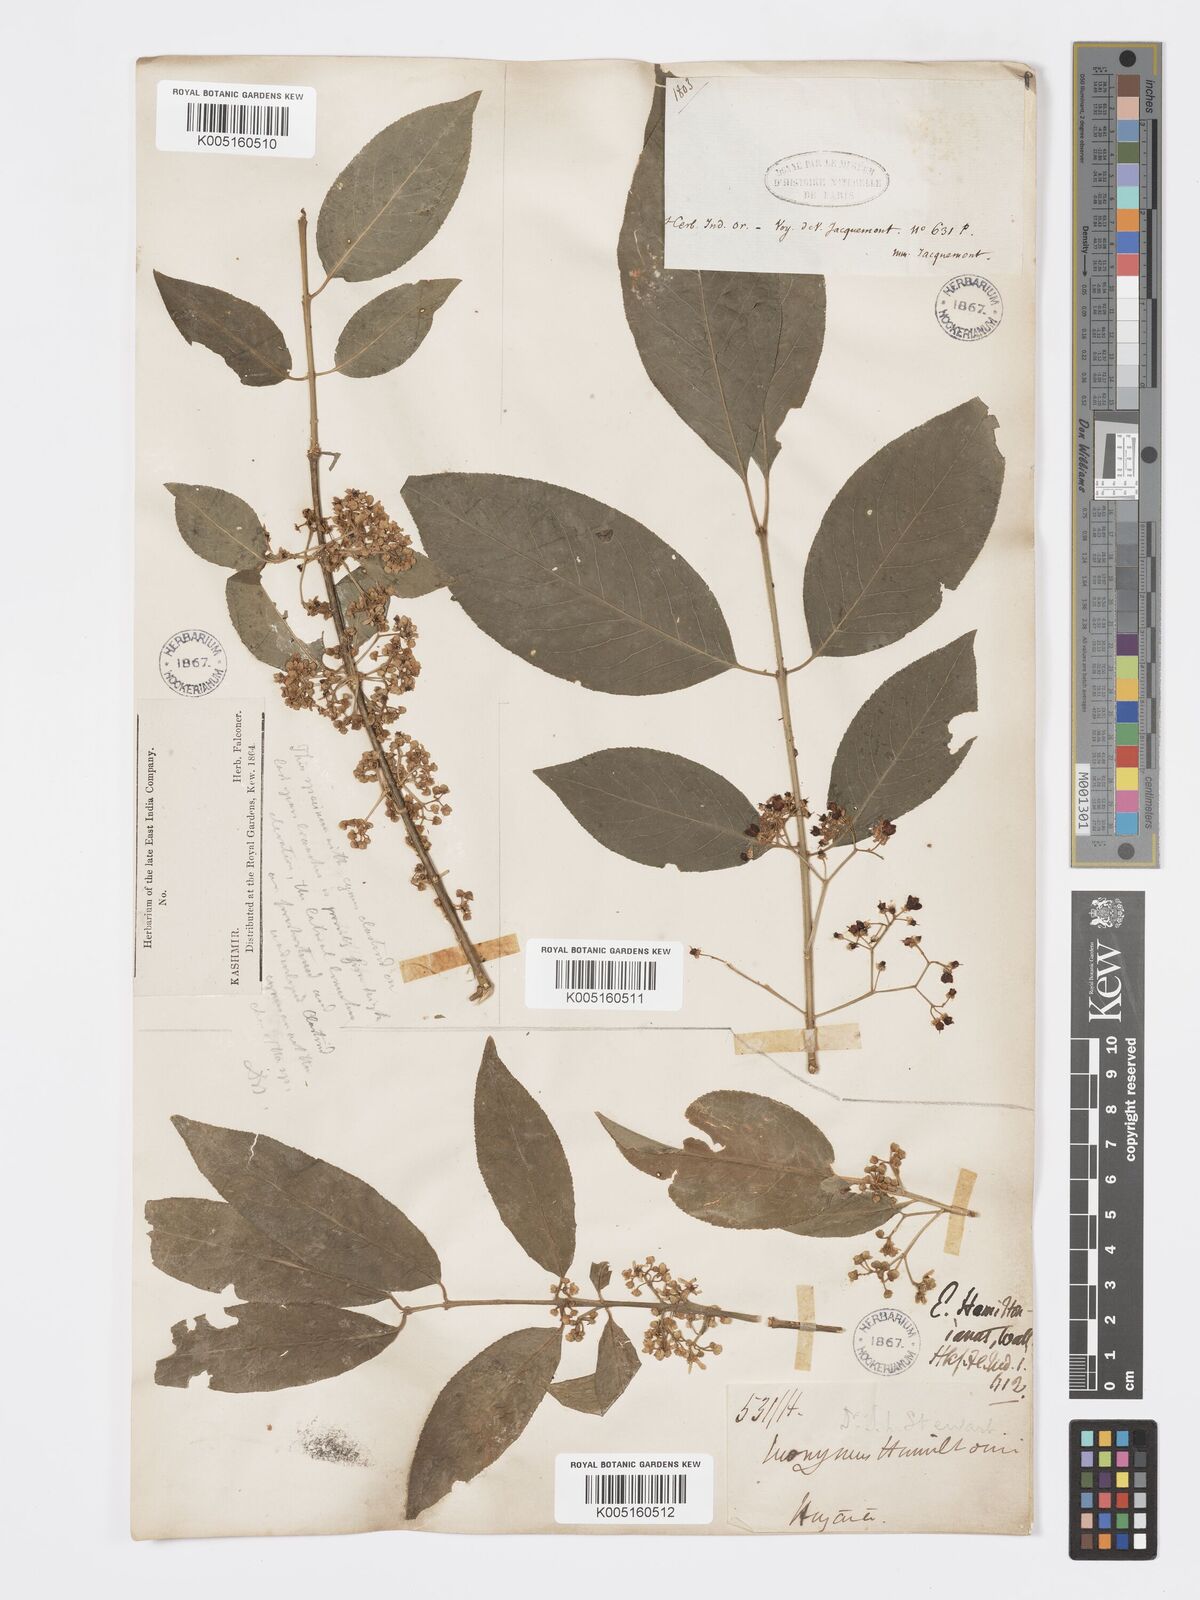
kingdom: Plantae
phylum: Tracheophyta
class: Magnoliopsida
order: Celastrales
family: Celastraceae
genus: Euonymus
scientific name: Euonymus
